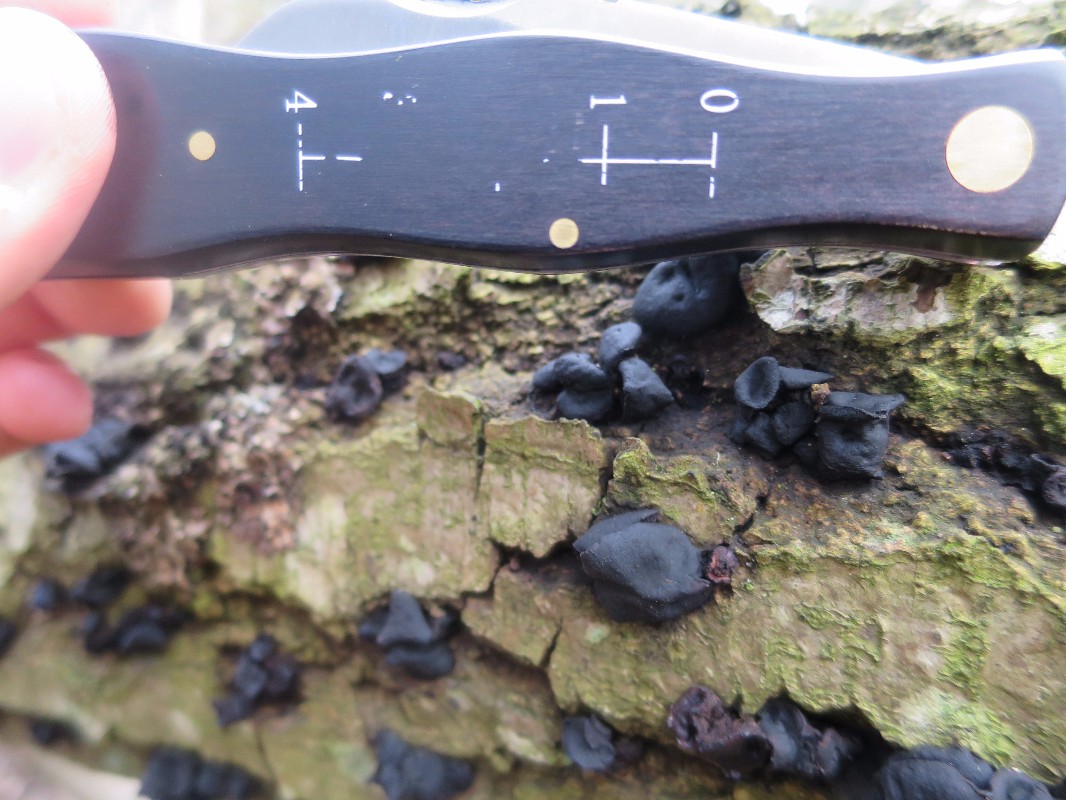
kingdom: Fungi
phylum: Ascomycota
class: Leotiomycetes
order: Phacidiales
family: Phacidiaceae
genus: Bulgaria
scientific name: Bulgaria inquinans
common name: afsmittende topsvamp
